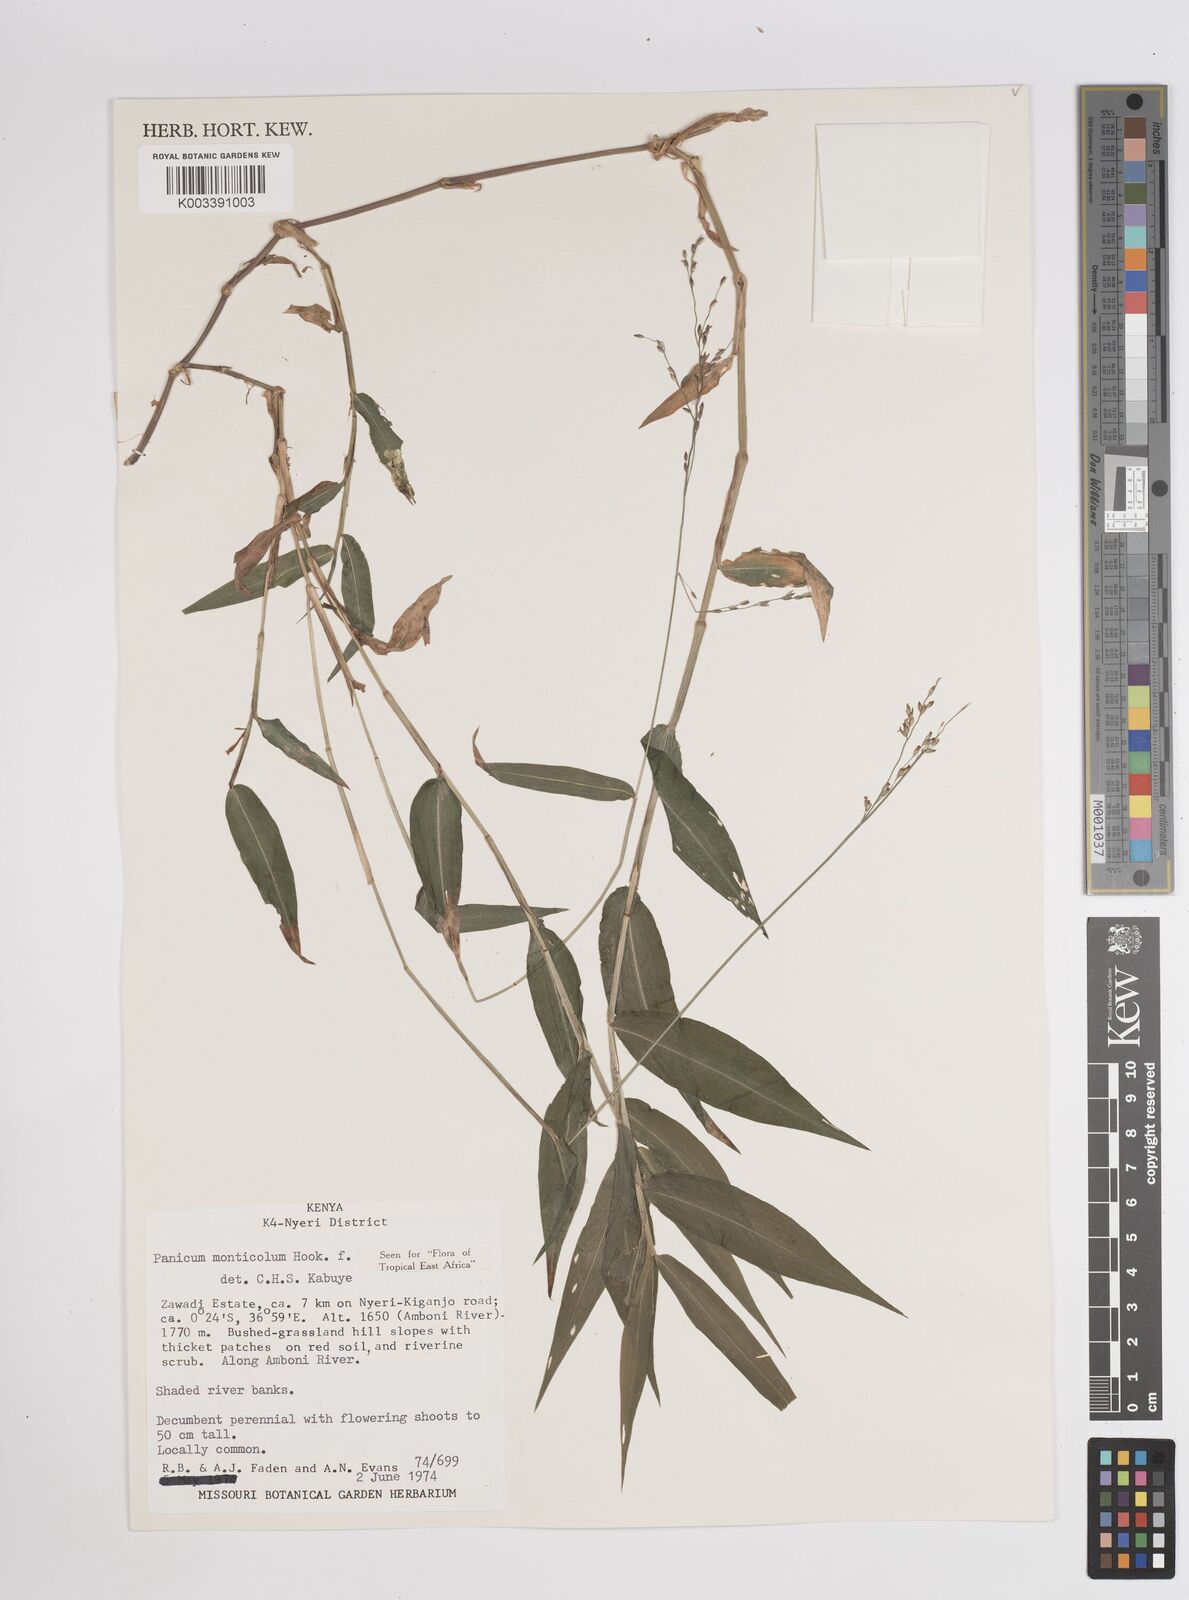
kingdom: Plantae
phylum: Tracheophyta
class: Liliopsida
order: Poales
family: Poaceae
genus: Panicum
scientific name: Panicum monticola
